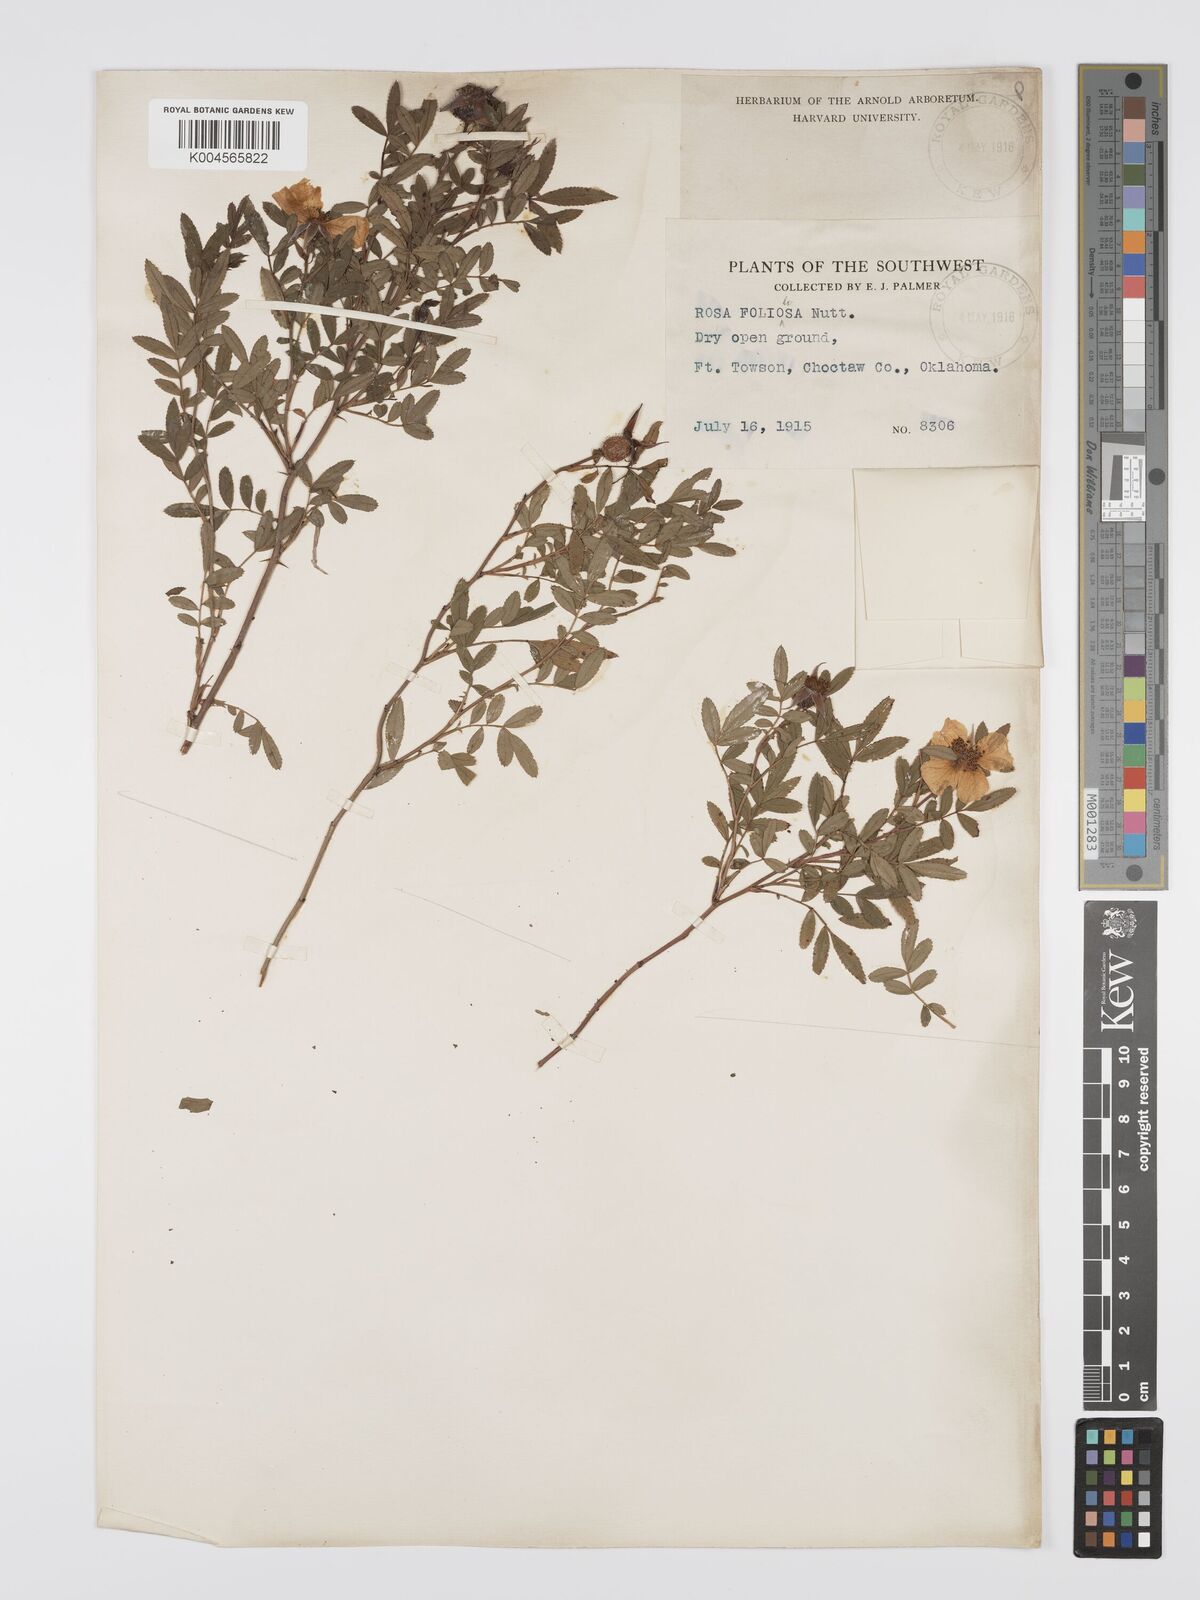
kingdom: Plantae
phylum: Tracheophyta
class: Magnoliopsida
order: Rosales
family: Rosaceae
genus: Rosa
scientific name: Rosa foliolosa
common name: White prairie rose
